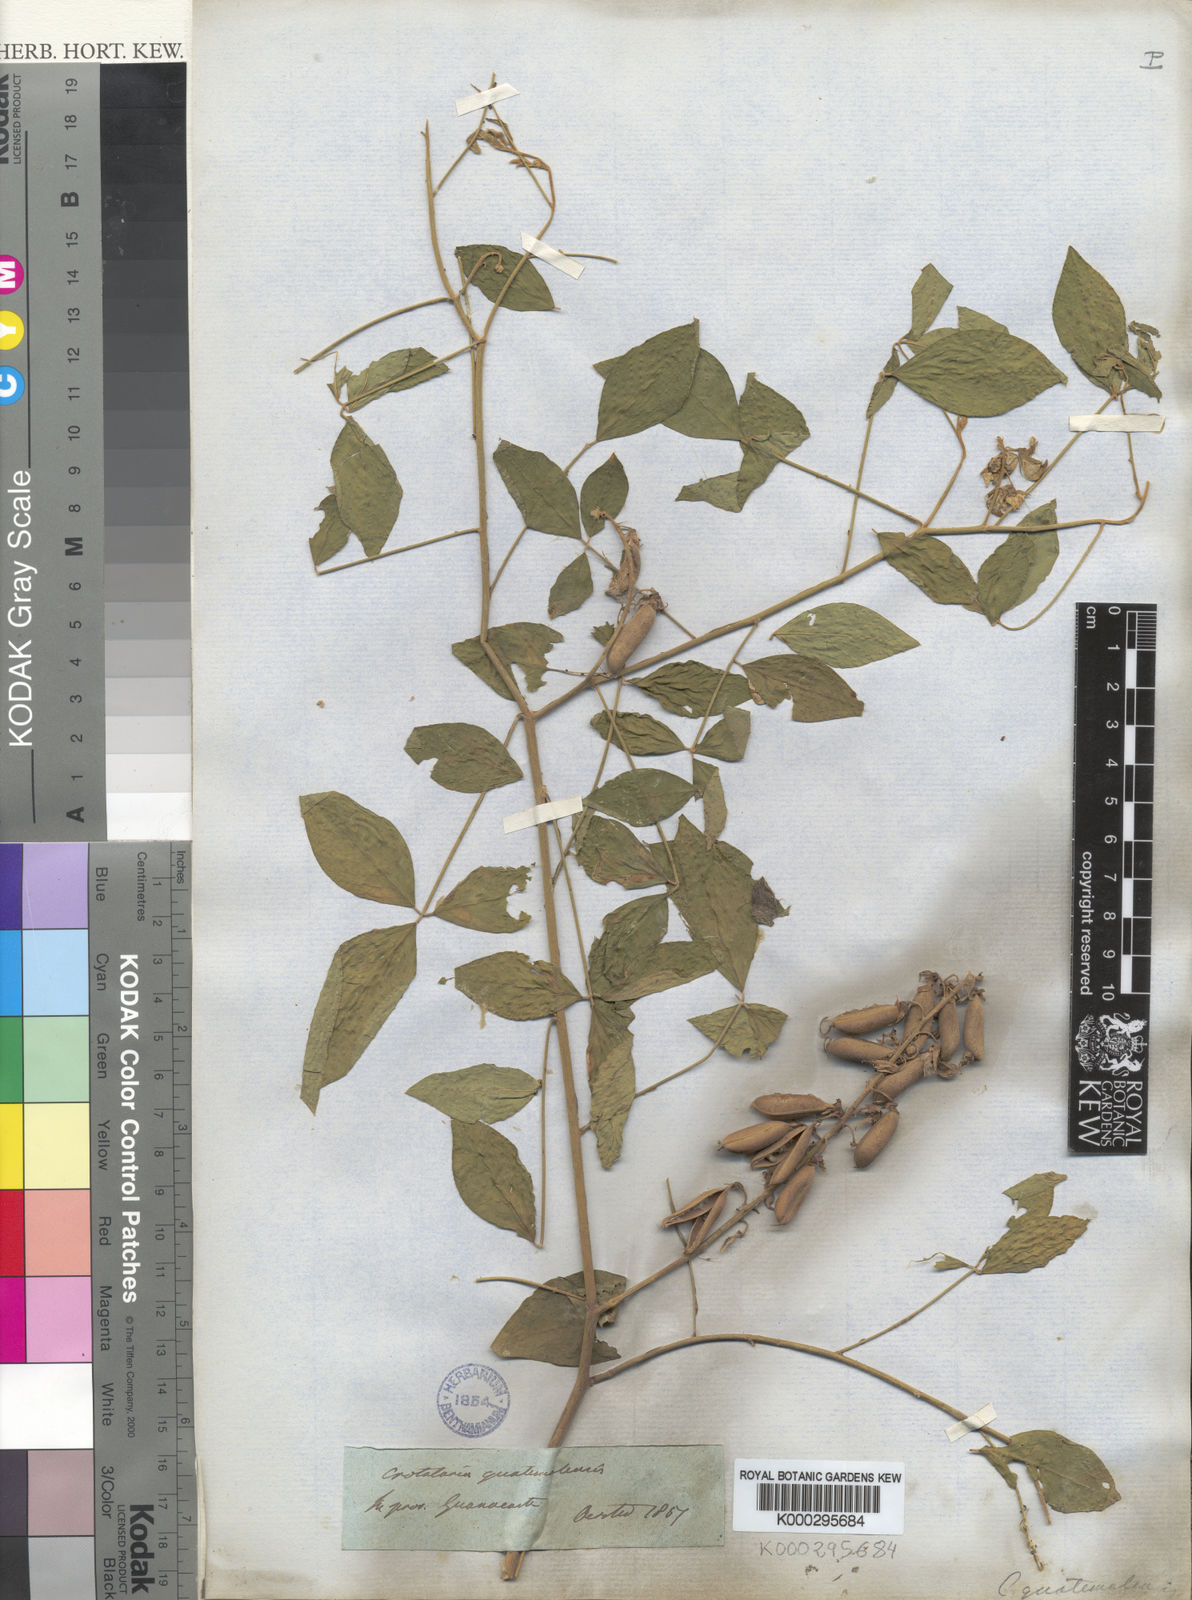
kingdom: Plantae
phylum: Tracheophyta
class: Magnoliopsida
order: Fabales
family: Fabaceae
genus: Crotalaria
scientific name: Crotalaria cajanifolia
